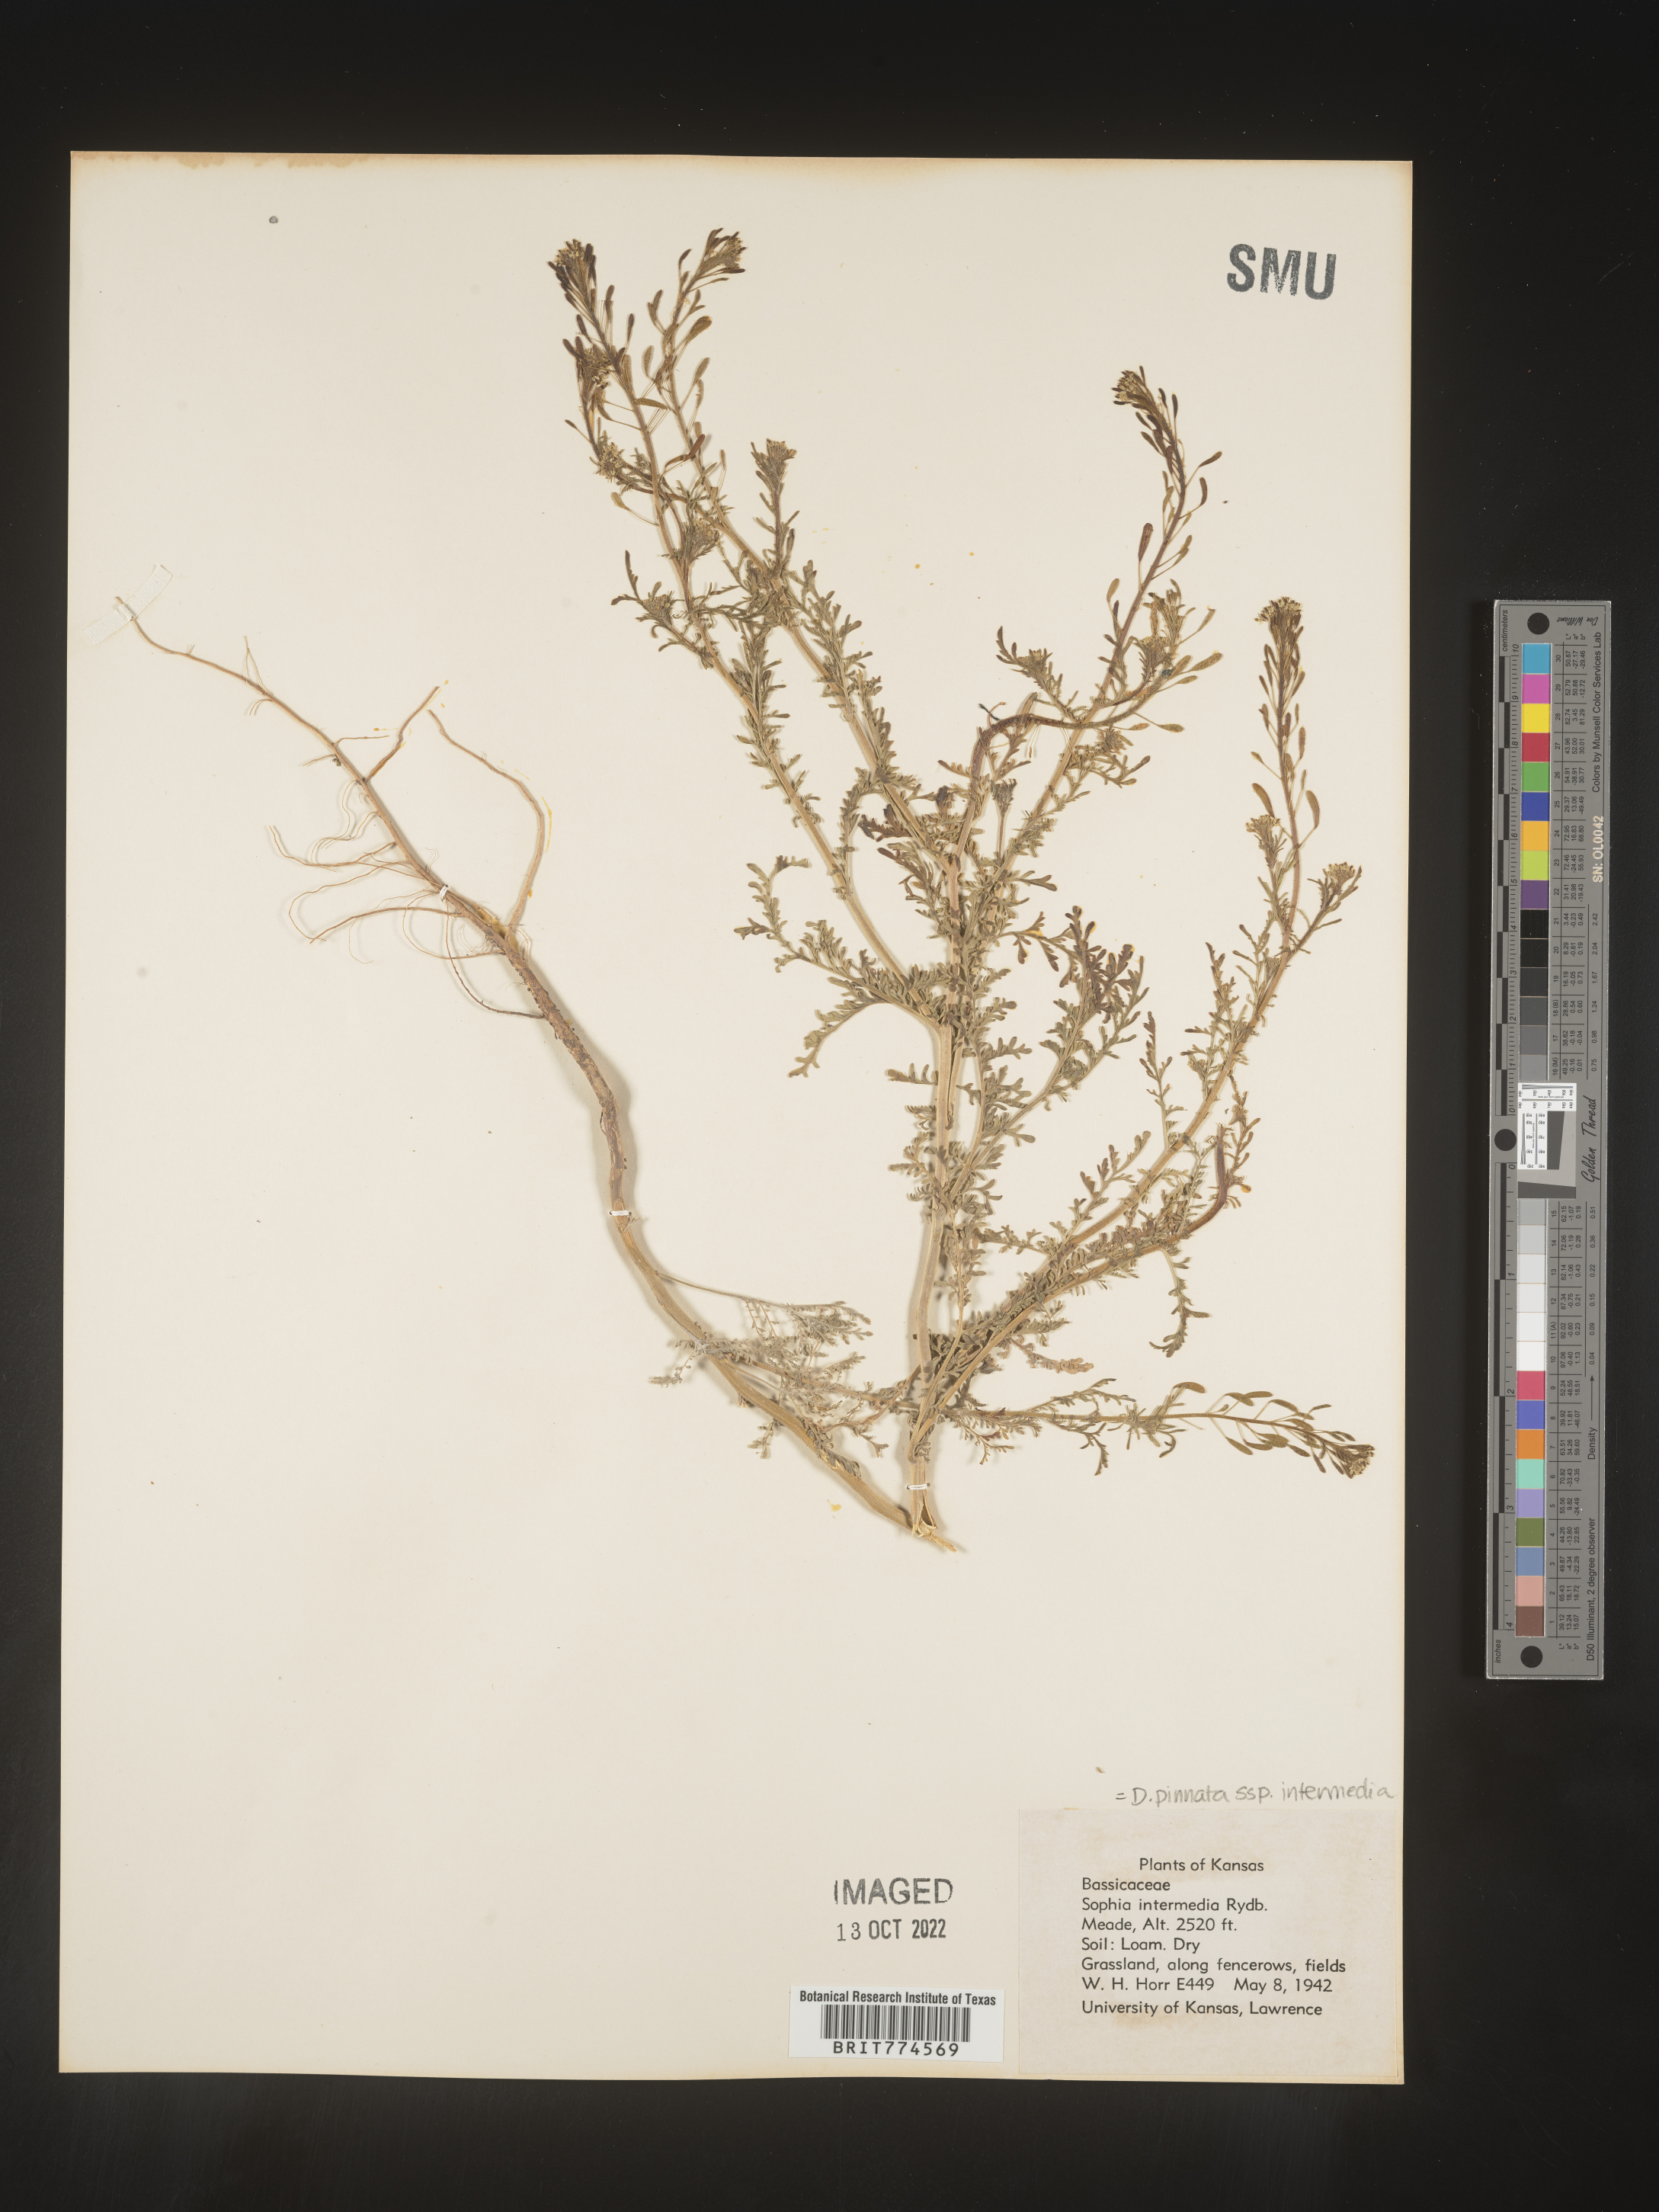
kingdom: Plantae
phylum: Tracheophyta
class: Magnoliopsida
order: Brassicales
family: Brassicaceae
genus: Descurainia
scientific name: Descurainia pinnata
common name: Western tansy mustard
